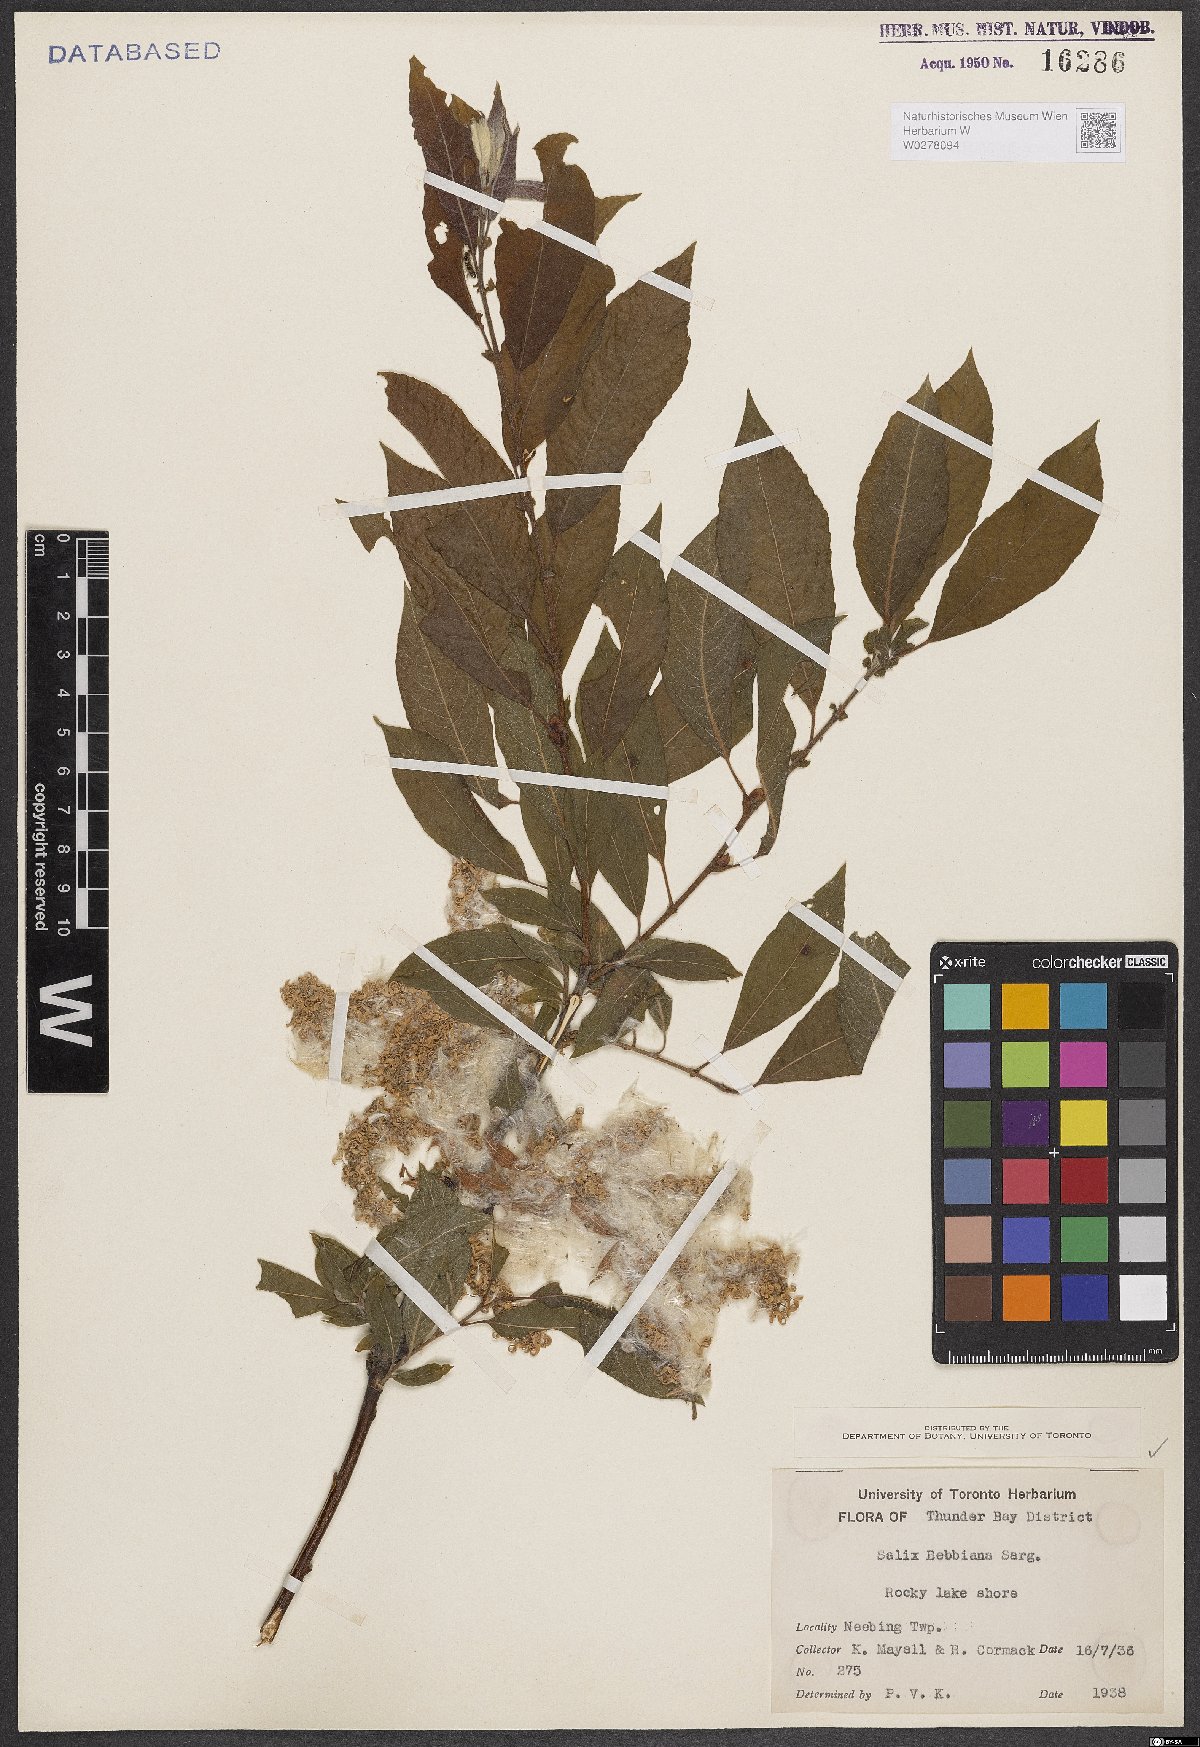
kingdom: Plantae
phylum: Tracheophyta
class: Magnoliopsida
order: Malpighiales
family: Salicaceae
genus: Salix
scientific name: Salix bebbiana
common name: Bebb's willow
